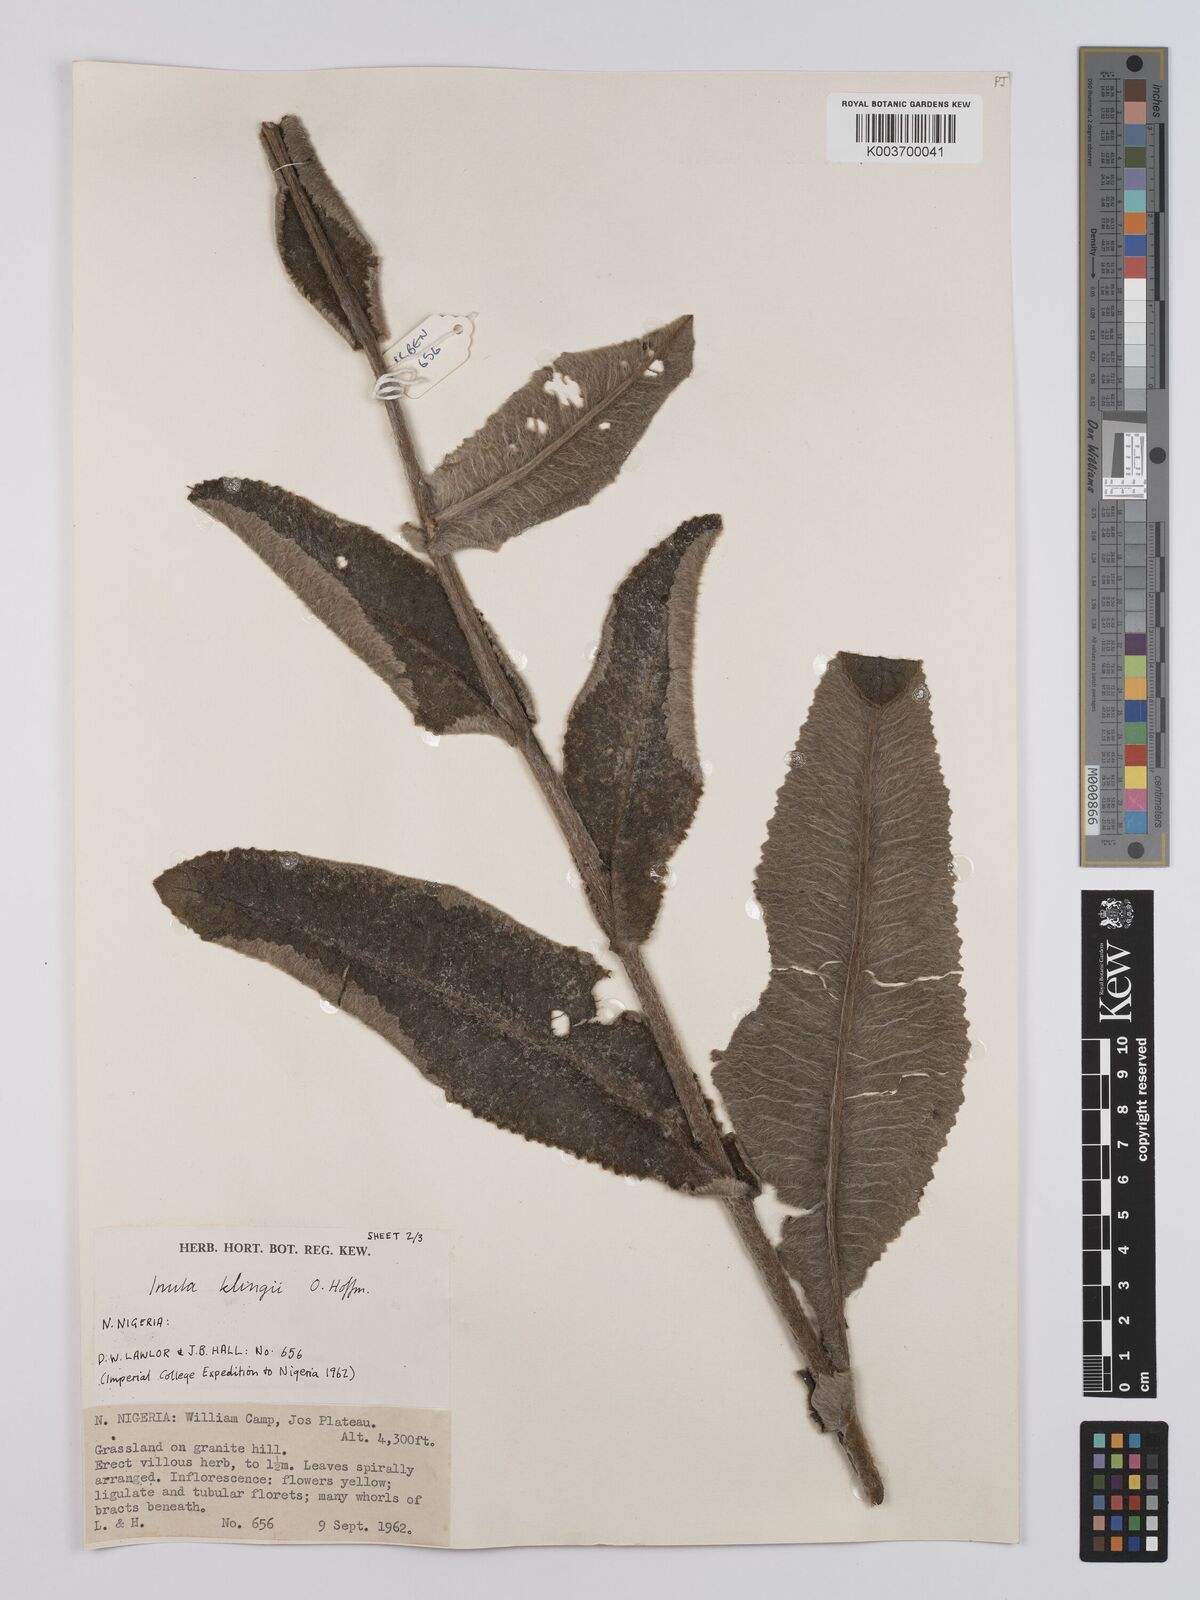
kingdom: Plantae
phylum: Tracheophyta
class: Magnoliopsida
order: Asterales
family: Asteraceae
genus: Inula
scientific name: Inula klingii
